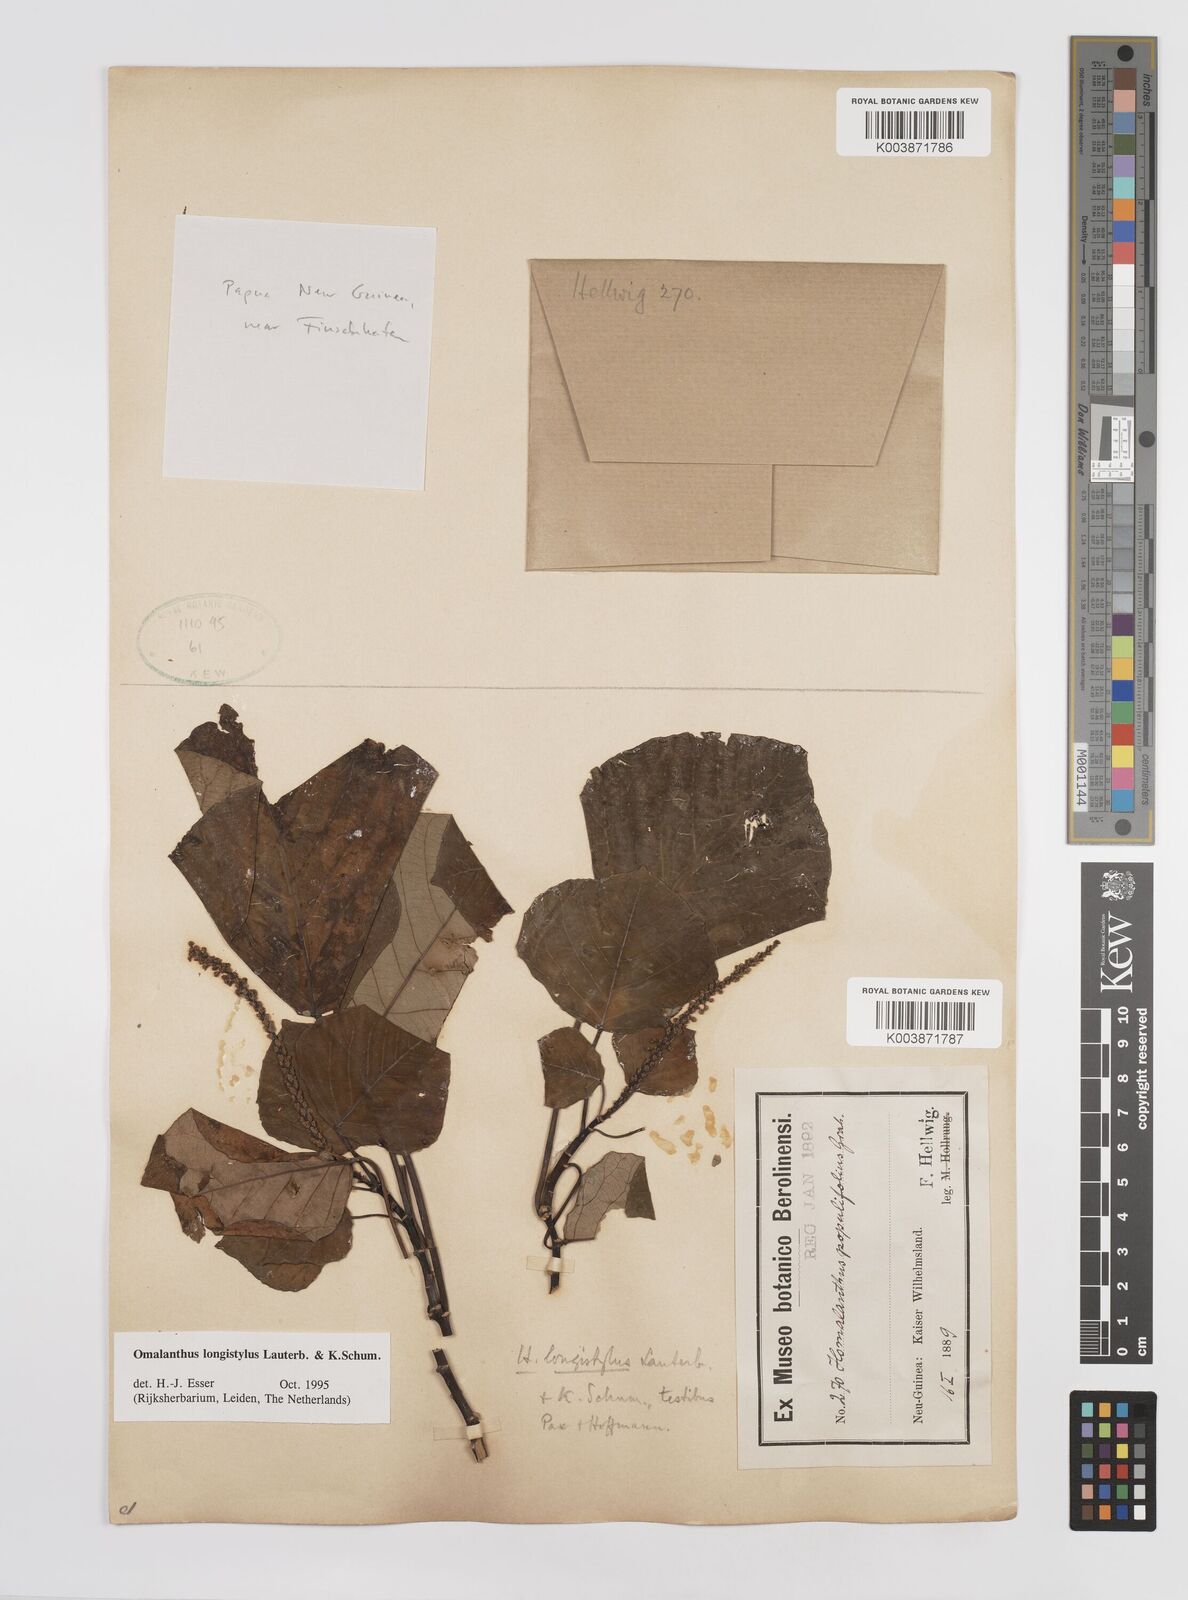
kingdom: Plantae
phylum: Tracheophyta
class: Magnoliopsida
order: Malpighiales
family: Euphorbiaceae
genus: Homalanthus
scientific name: Homalanthus longistylus
